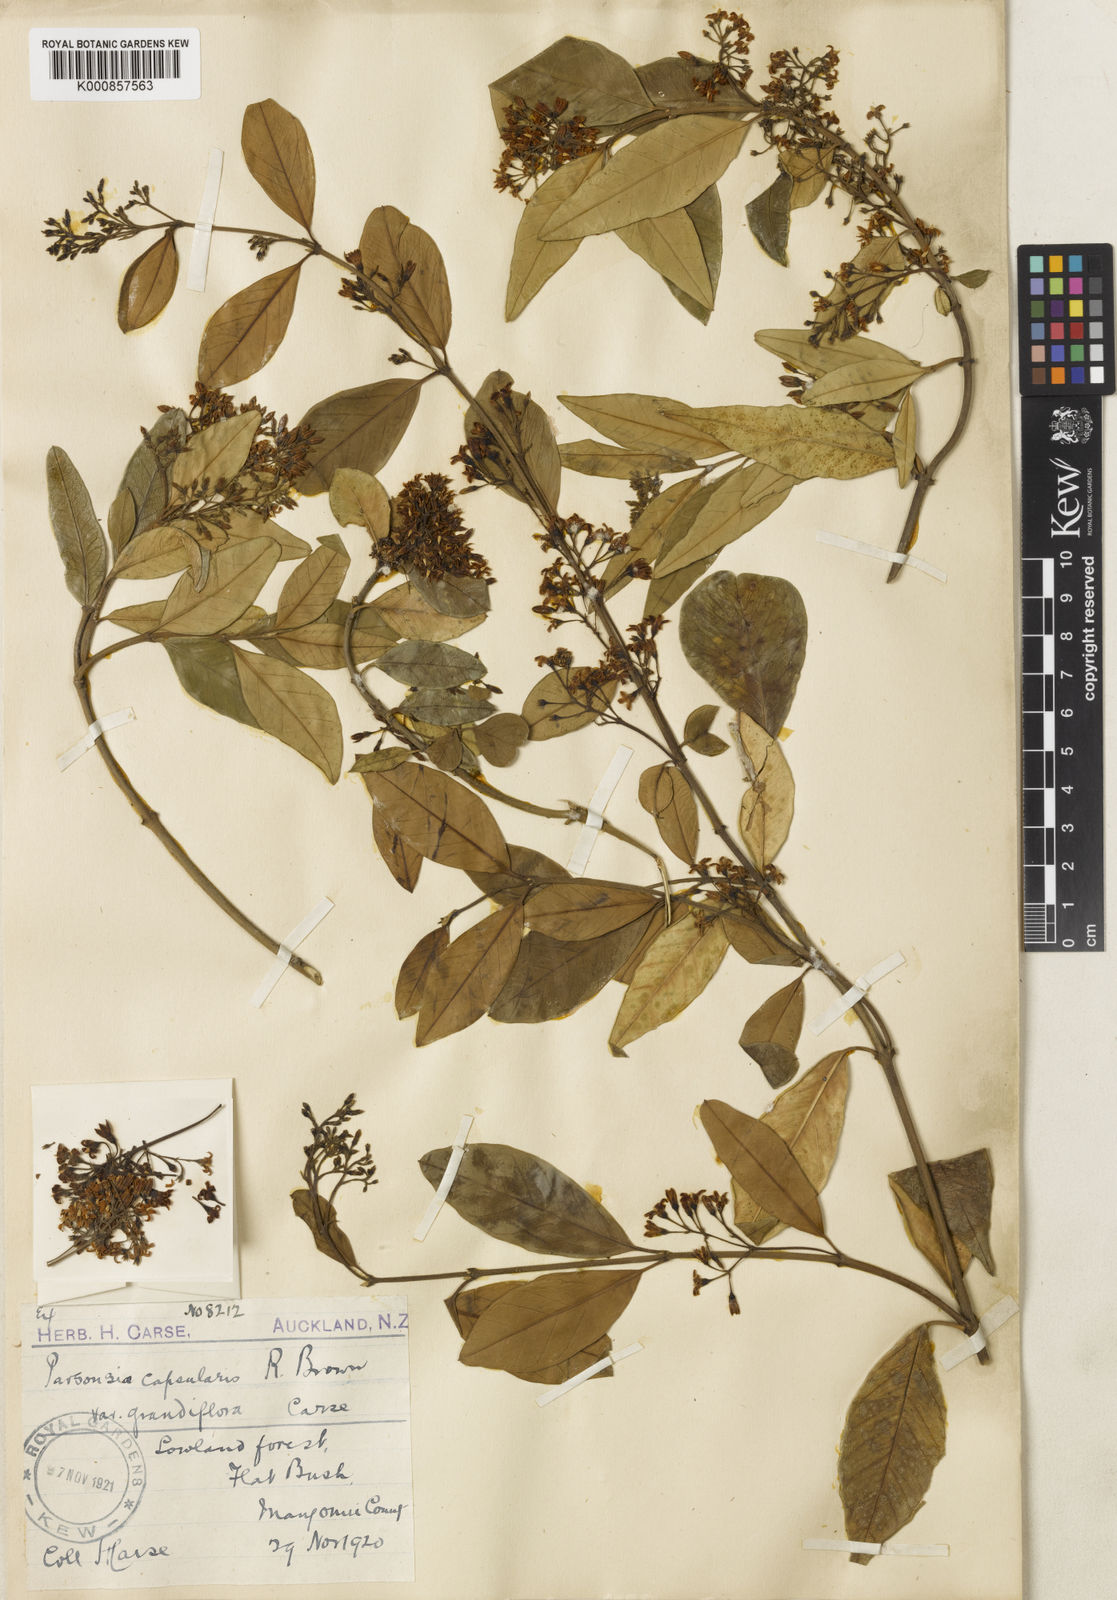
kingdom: Plantae
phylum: Tracheophyta
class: Magnoliopsida
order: Gentianales
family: Apocynaceae
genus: Parsonsia
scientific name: Parsonsia capsularis
